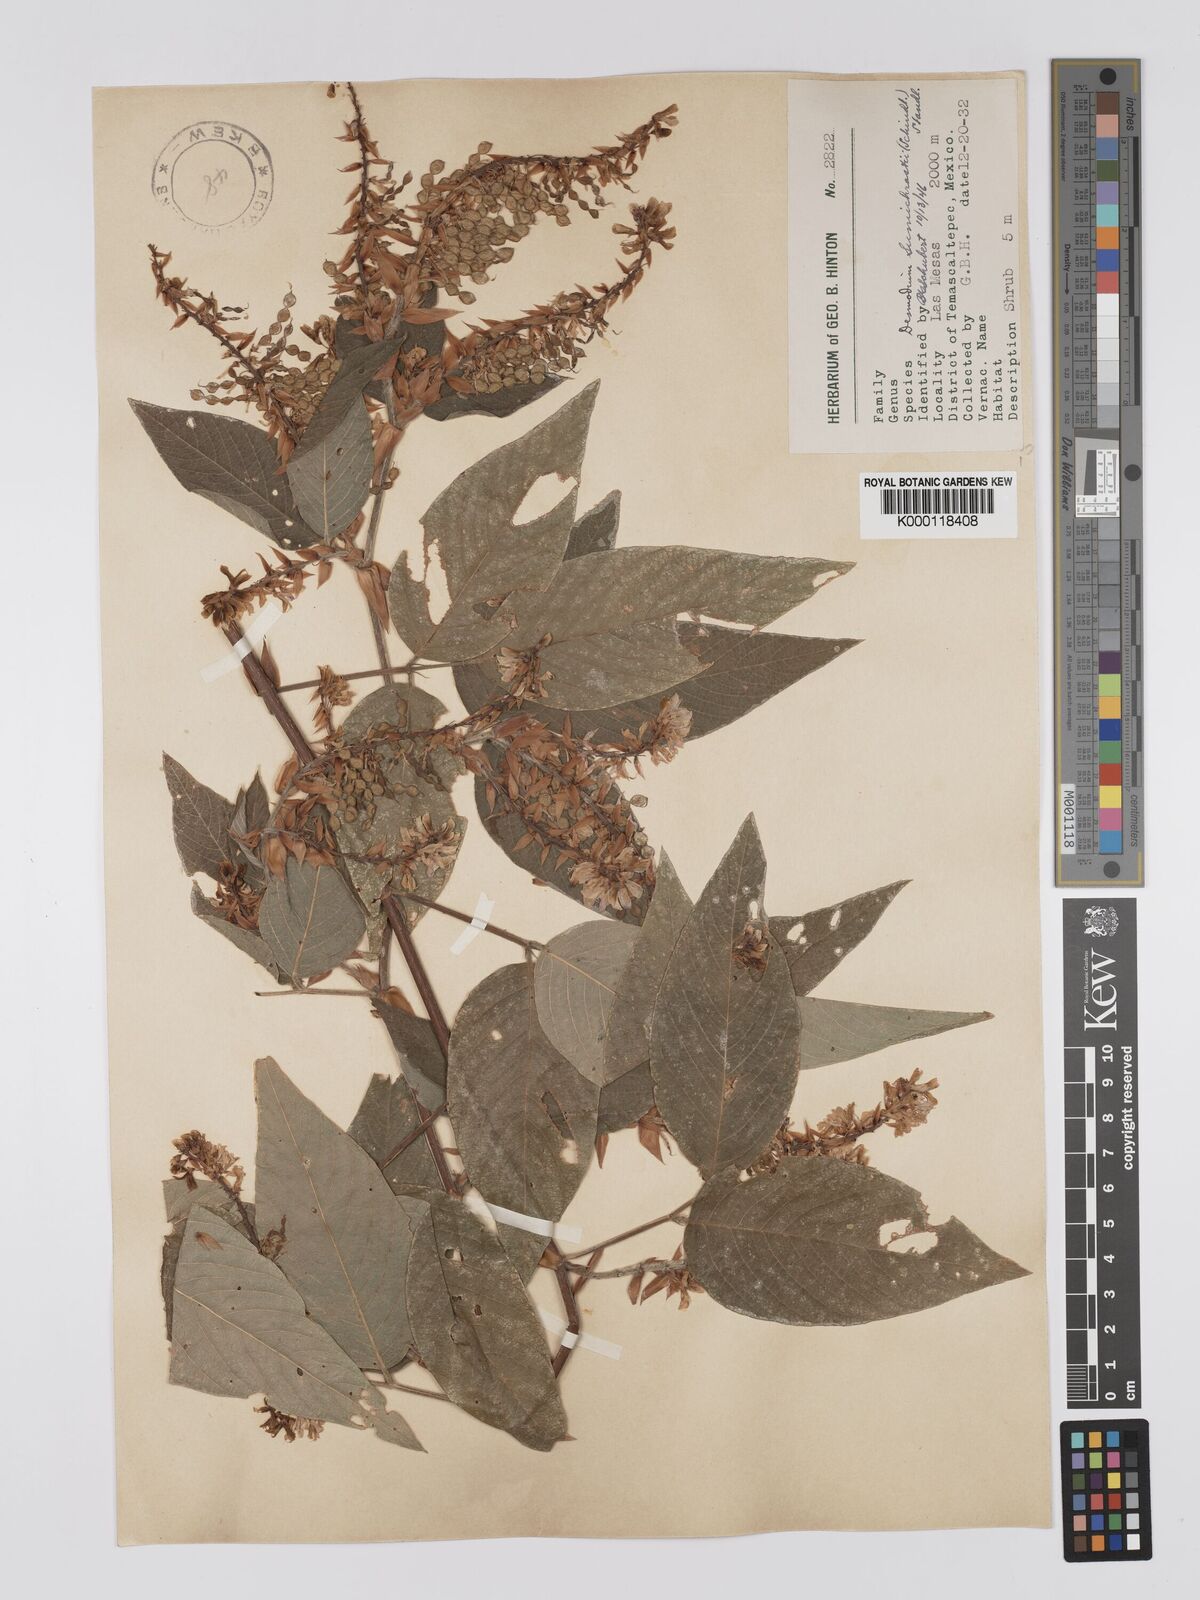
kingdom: Plantae
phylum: Tracheophyta
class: Magnoliopsida
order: Fabales
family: Fabaceae
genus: Desmodium
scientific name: Desmodium sumichrastii
